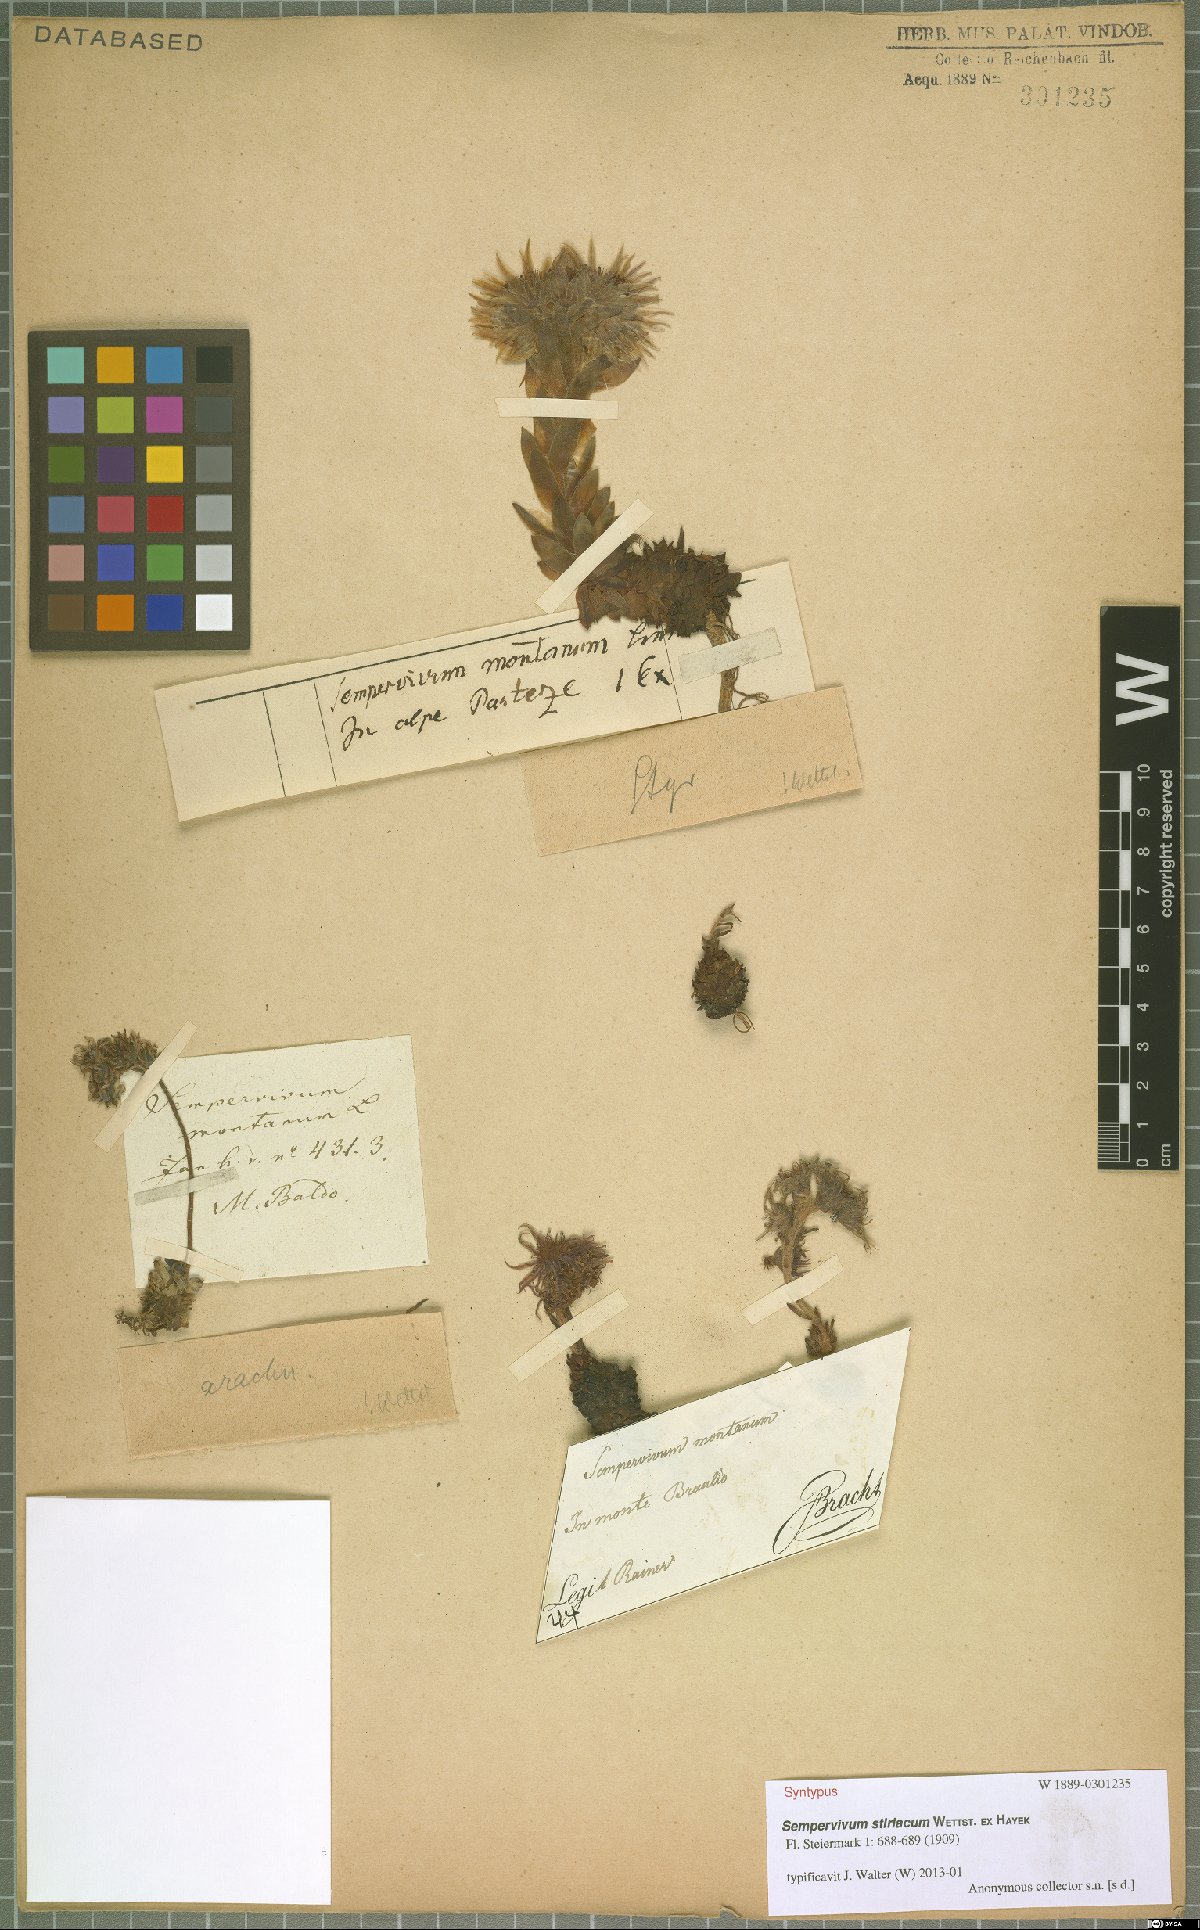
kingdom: Plantae
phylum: Tracheophyta
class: Magnoliopsida
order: Saxifragales
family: Crassulaceae
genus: Sempervivum
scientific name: Sempervivum montanum
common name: Mountain house-leek
